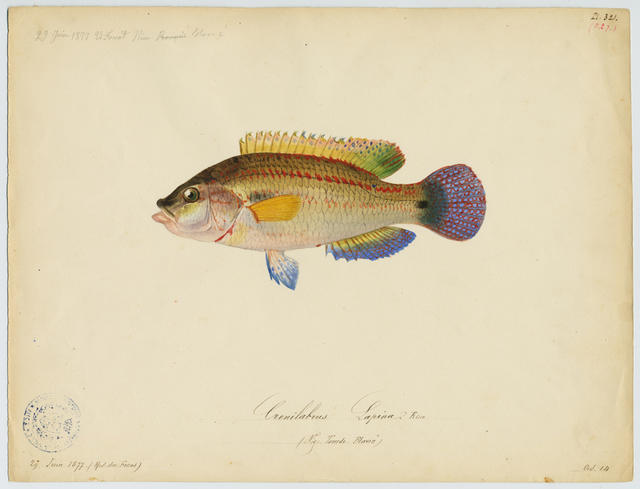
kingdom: Animalia
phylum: Chordata
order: Perciformes
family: Labridae
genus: Symphodus
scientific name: Symphodus tinca
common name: Peacock wrasse
